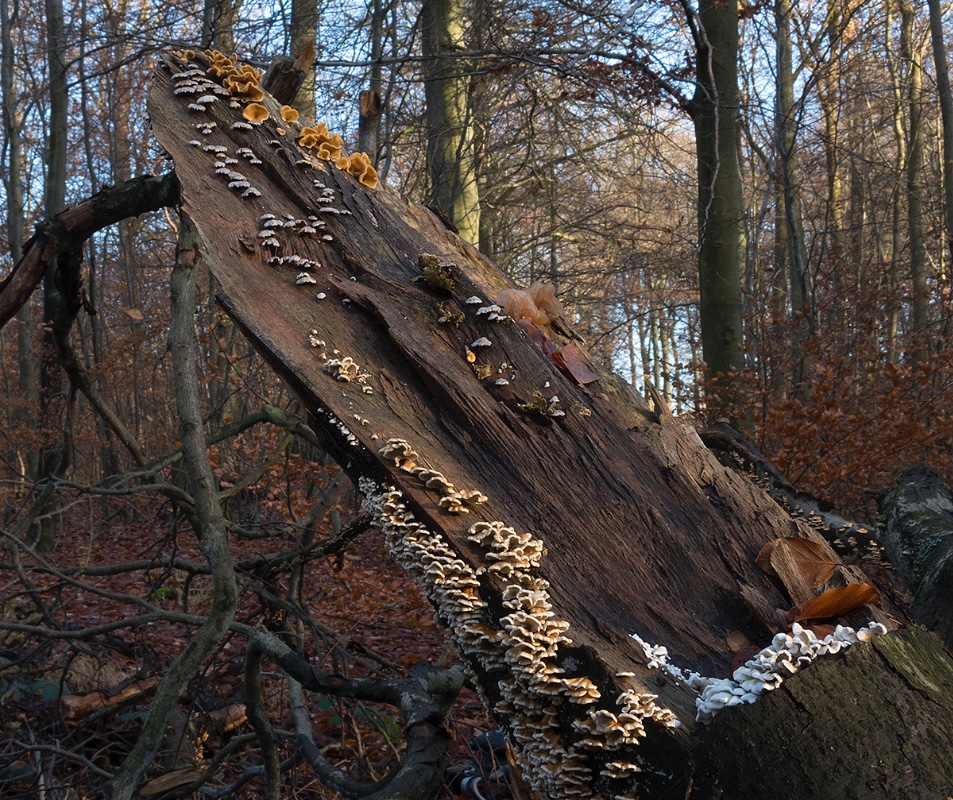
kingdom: Fungi
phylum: Basidiomycota
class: Tremellomycetes
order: Tremellales
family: Tremellaceae
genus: Phaeotremella
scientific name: Phaeotremella frondosa
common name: kæmpe-bævresvamp
